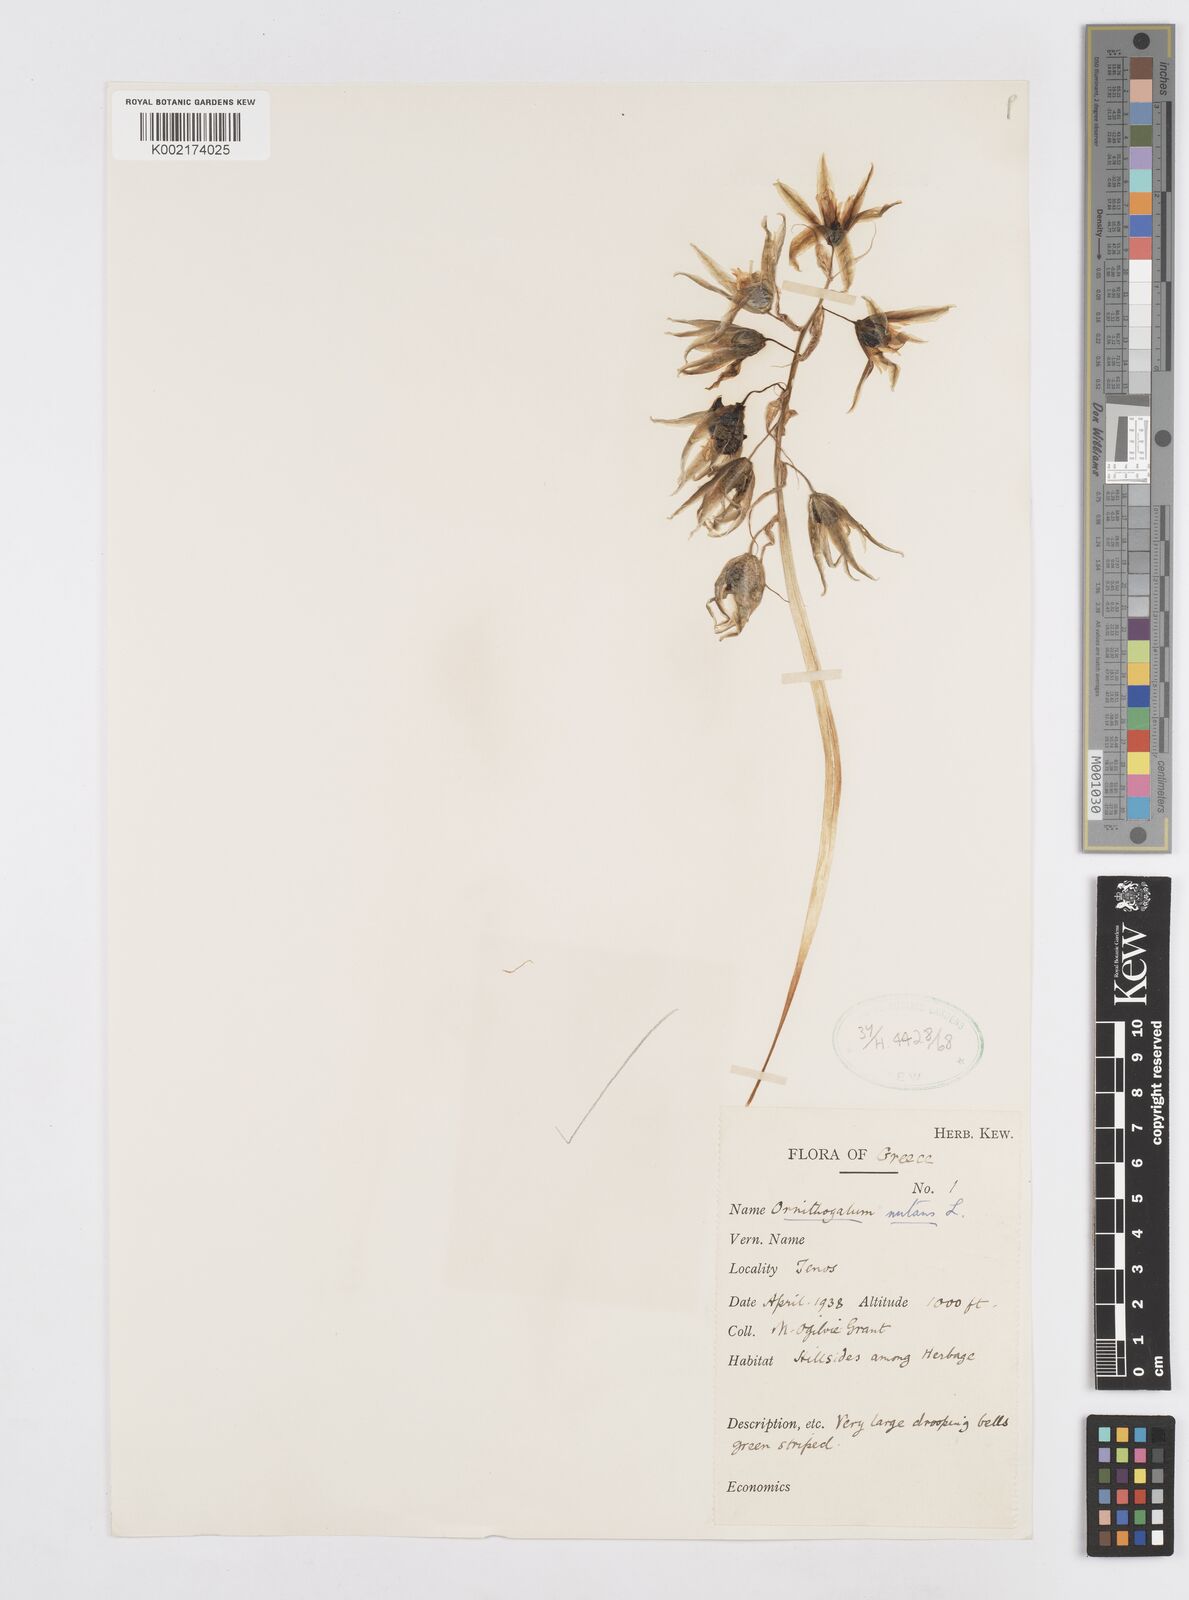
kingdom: Plantae
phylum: Tracheophyta
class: Liliopsida
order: Asparagales
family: Asparagaceae
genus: Ornithogalum
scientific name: Ornithogalum nutans
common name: Drooping star-of-bethlehem
